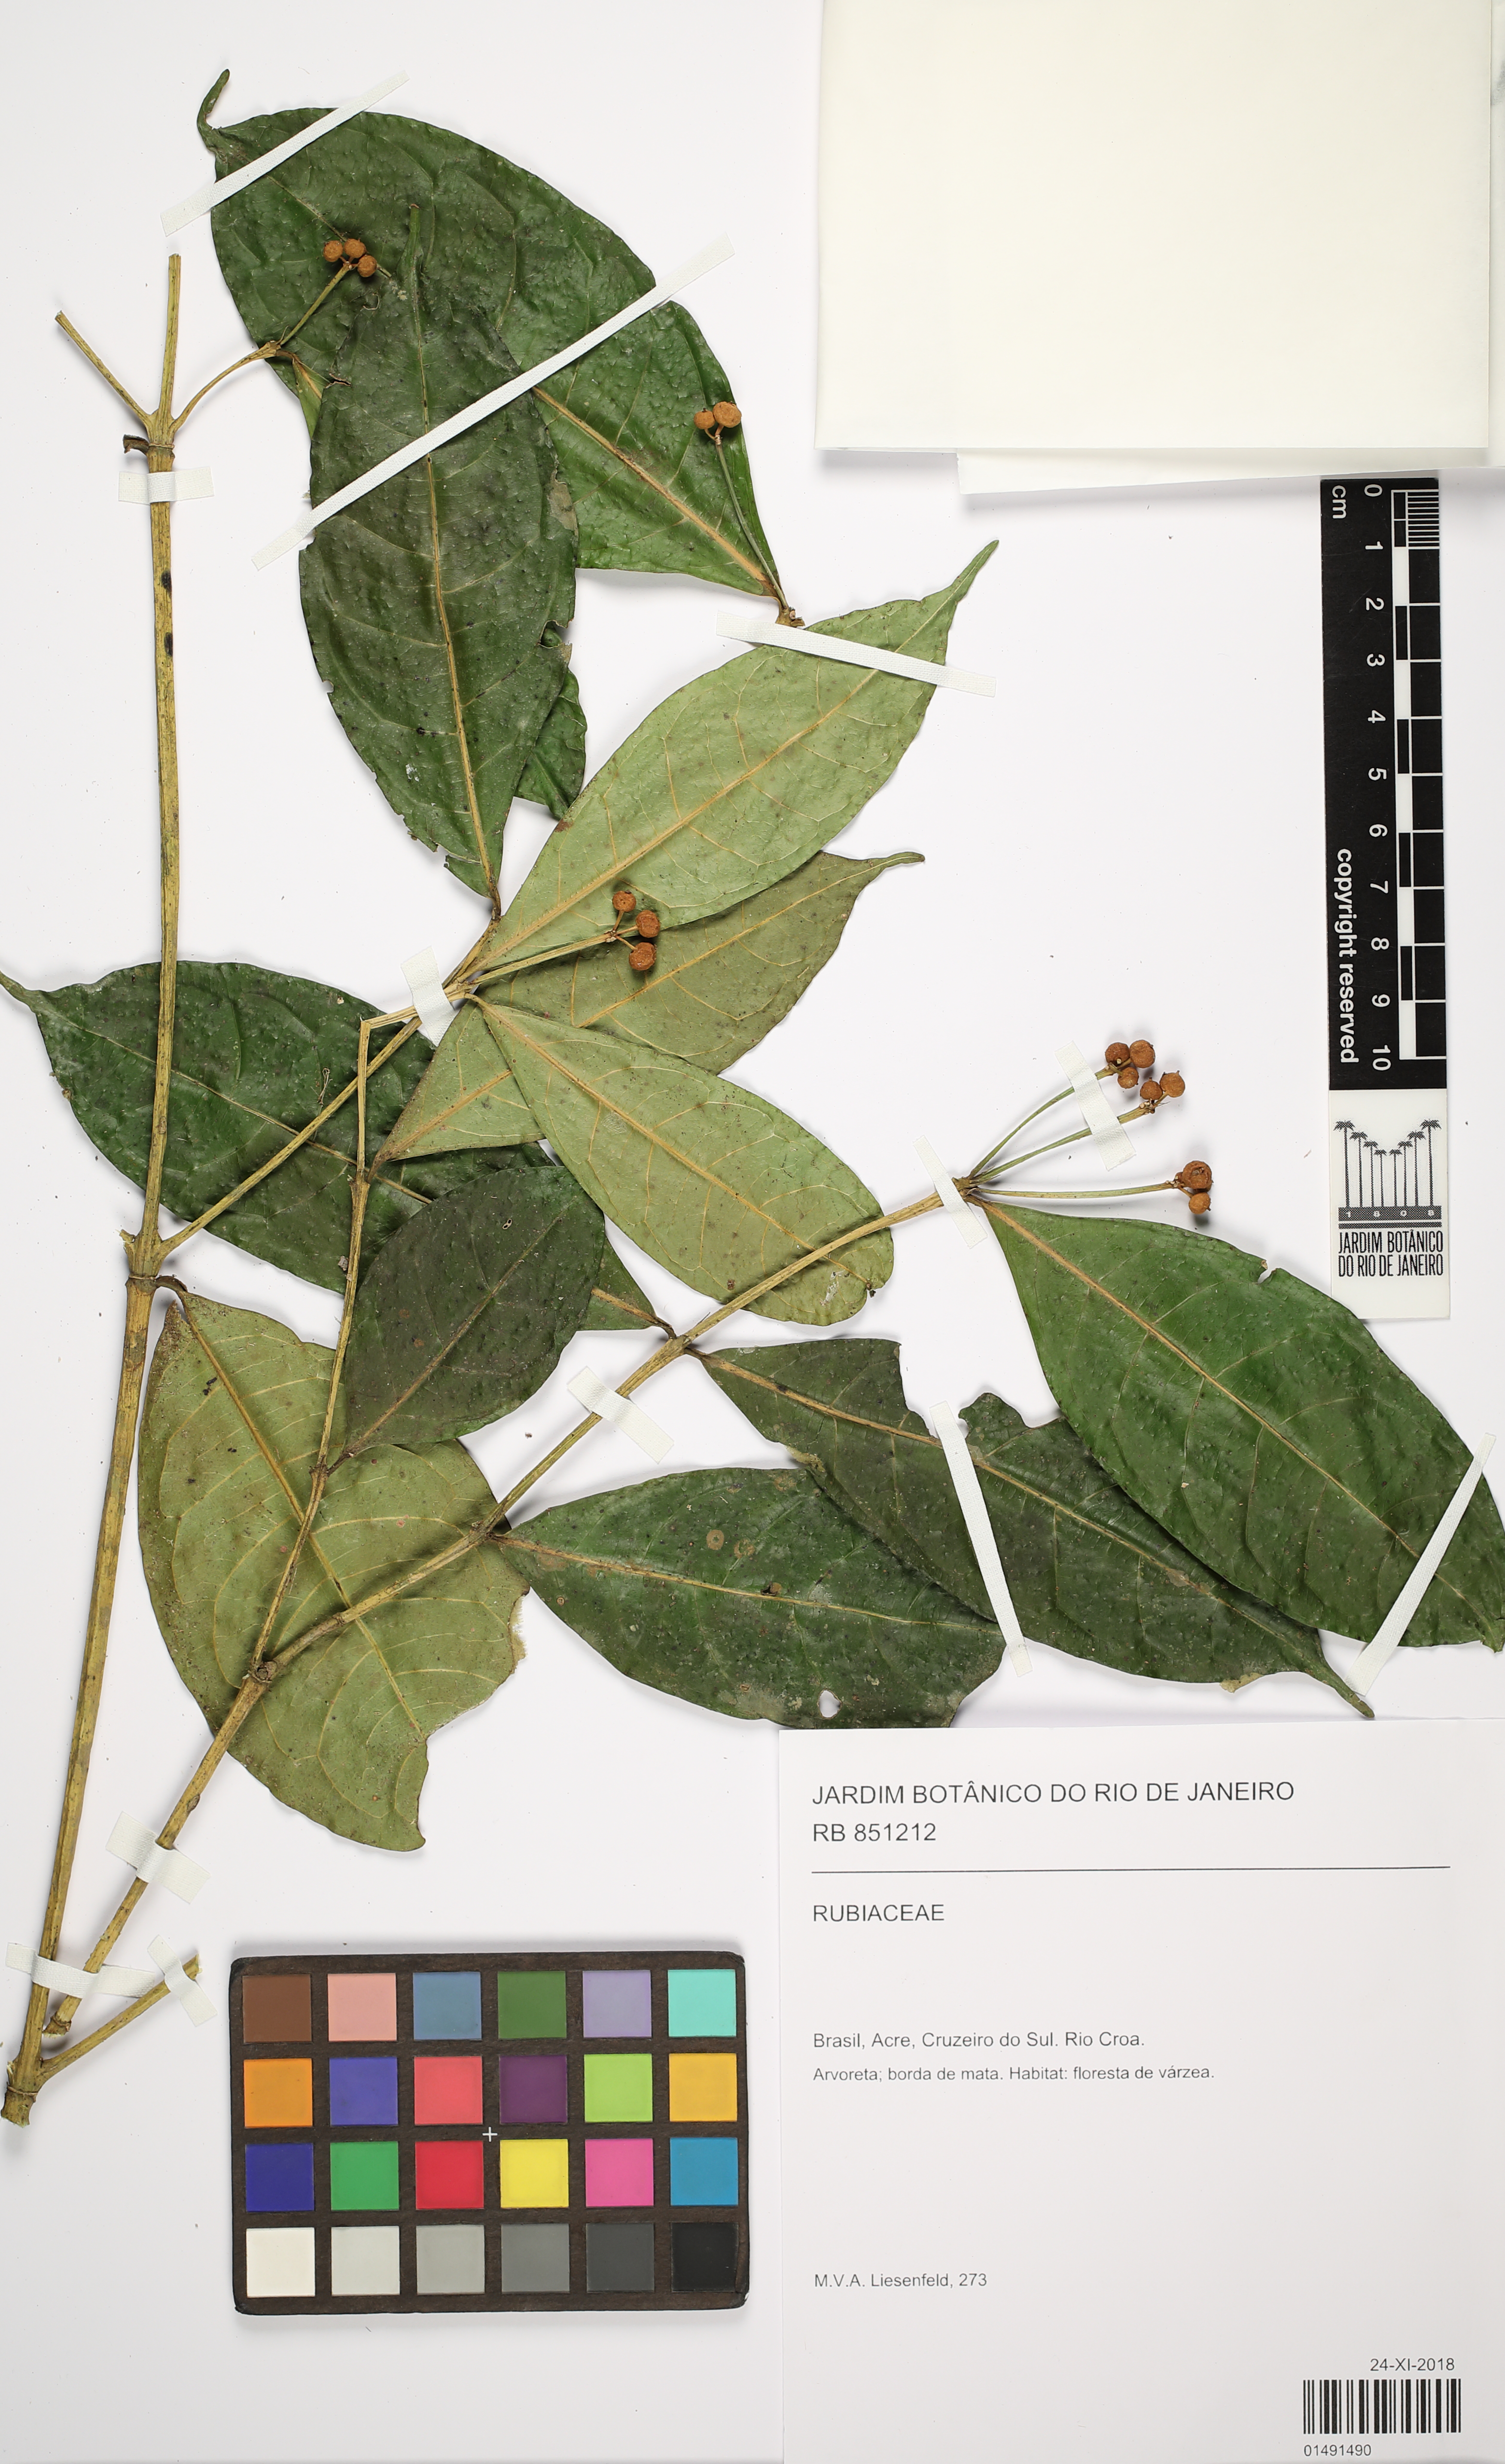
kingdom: Plantae
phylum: Tracheophyta
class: Magnoliopsida
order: Gentianales
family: Rubiaceae
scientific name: Rubiaceae
